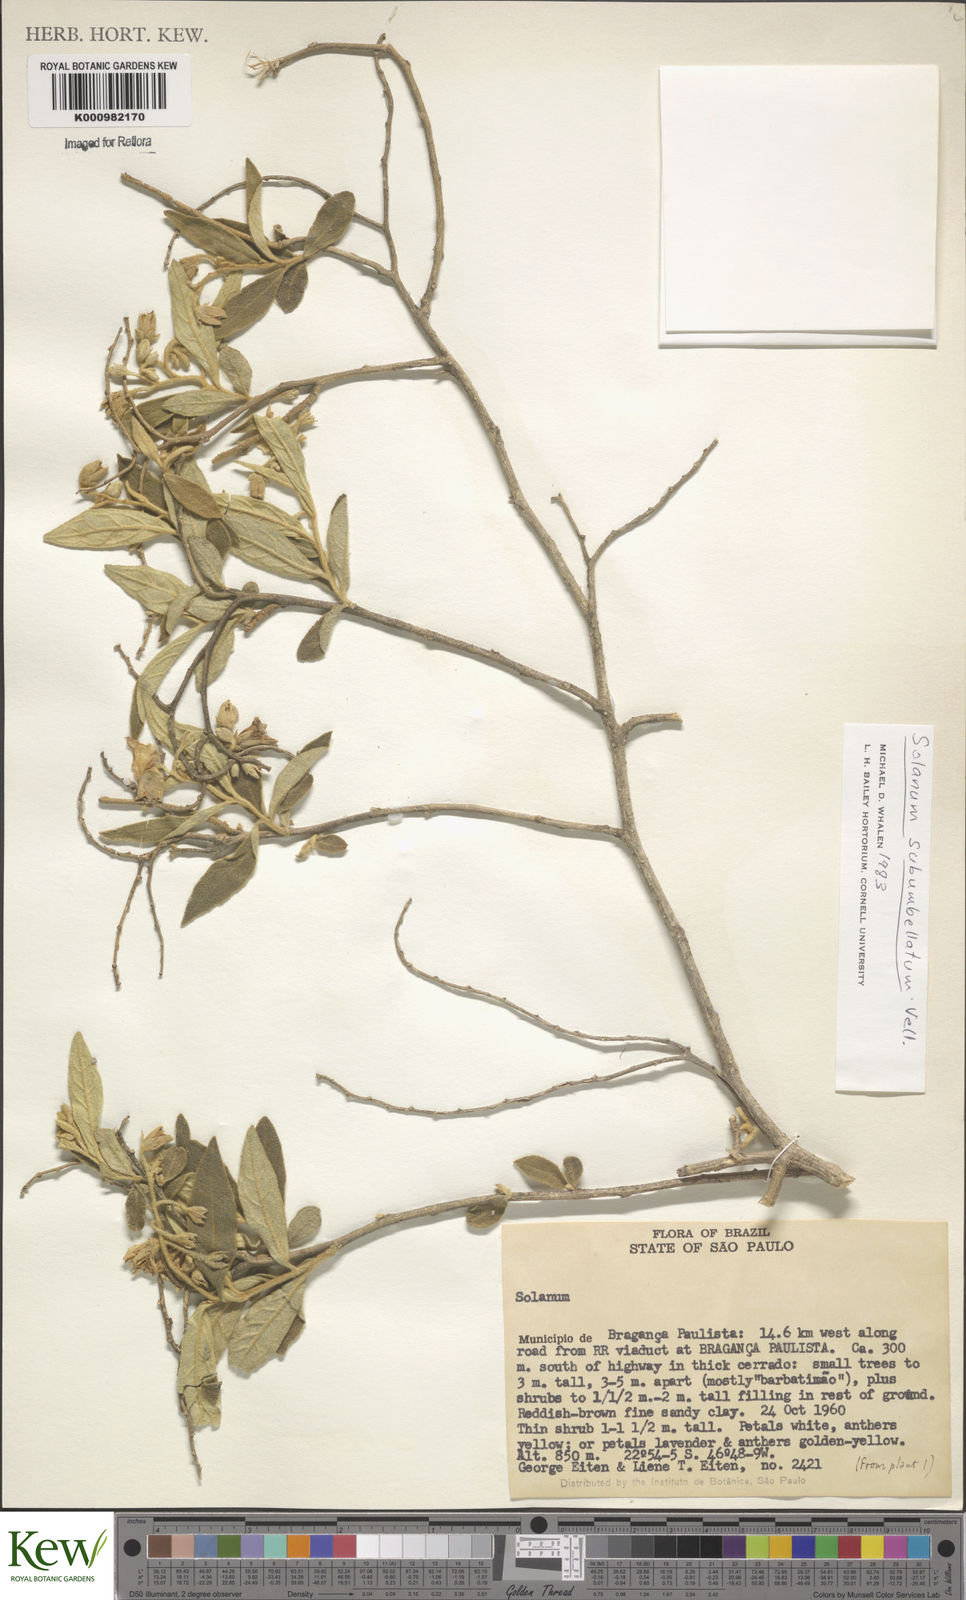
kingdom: Plantae
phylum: Tracheophyta
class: Magnoliopsida
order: Solanales
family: Solanaceae
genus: Solanum
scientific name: Solanum subumbellatum
